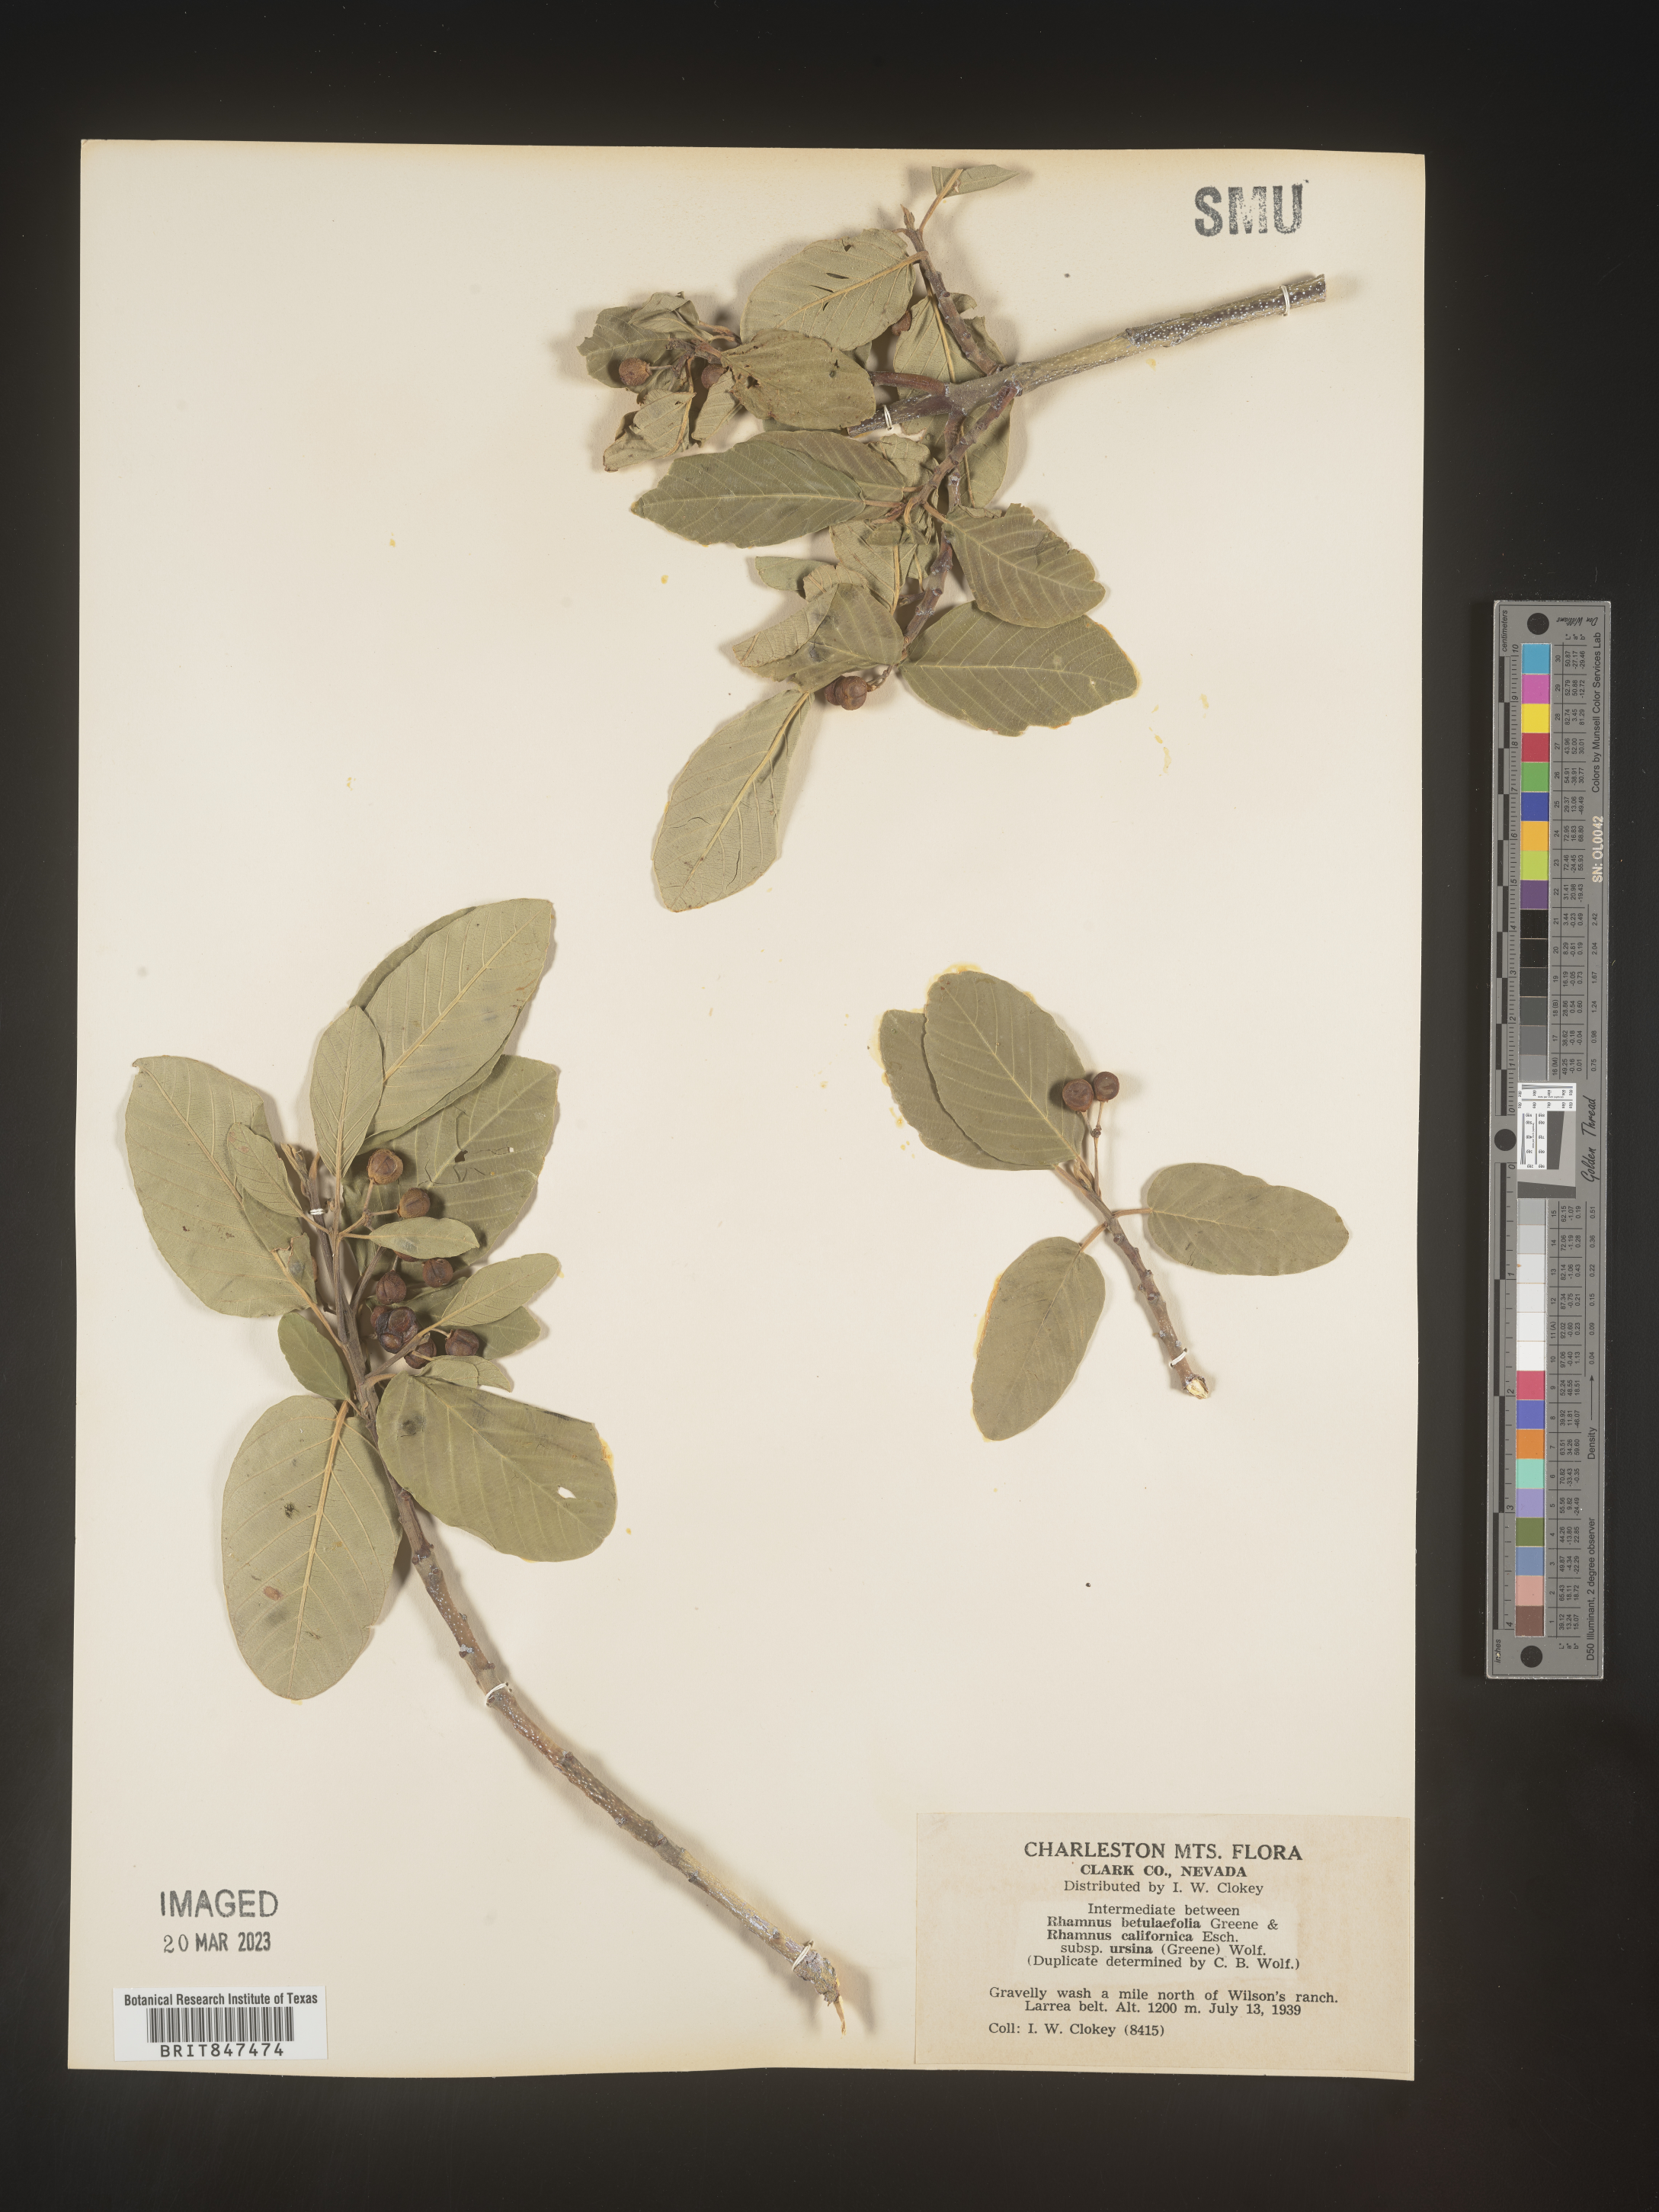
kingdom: Plantae
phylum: Tracheophyta
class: Magnoliopsida
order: Rosales
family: Rhamnaceae
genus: Frangula
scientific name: Frangula betulifolia
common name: Birch-leaf buckthorn
